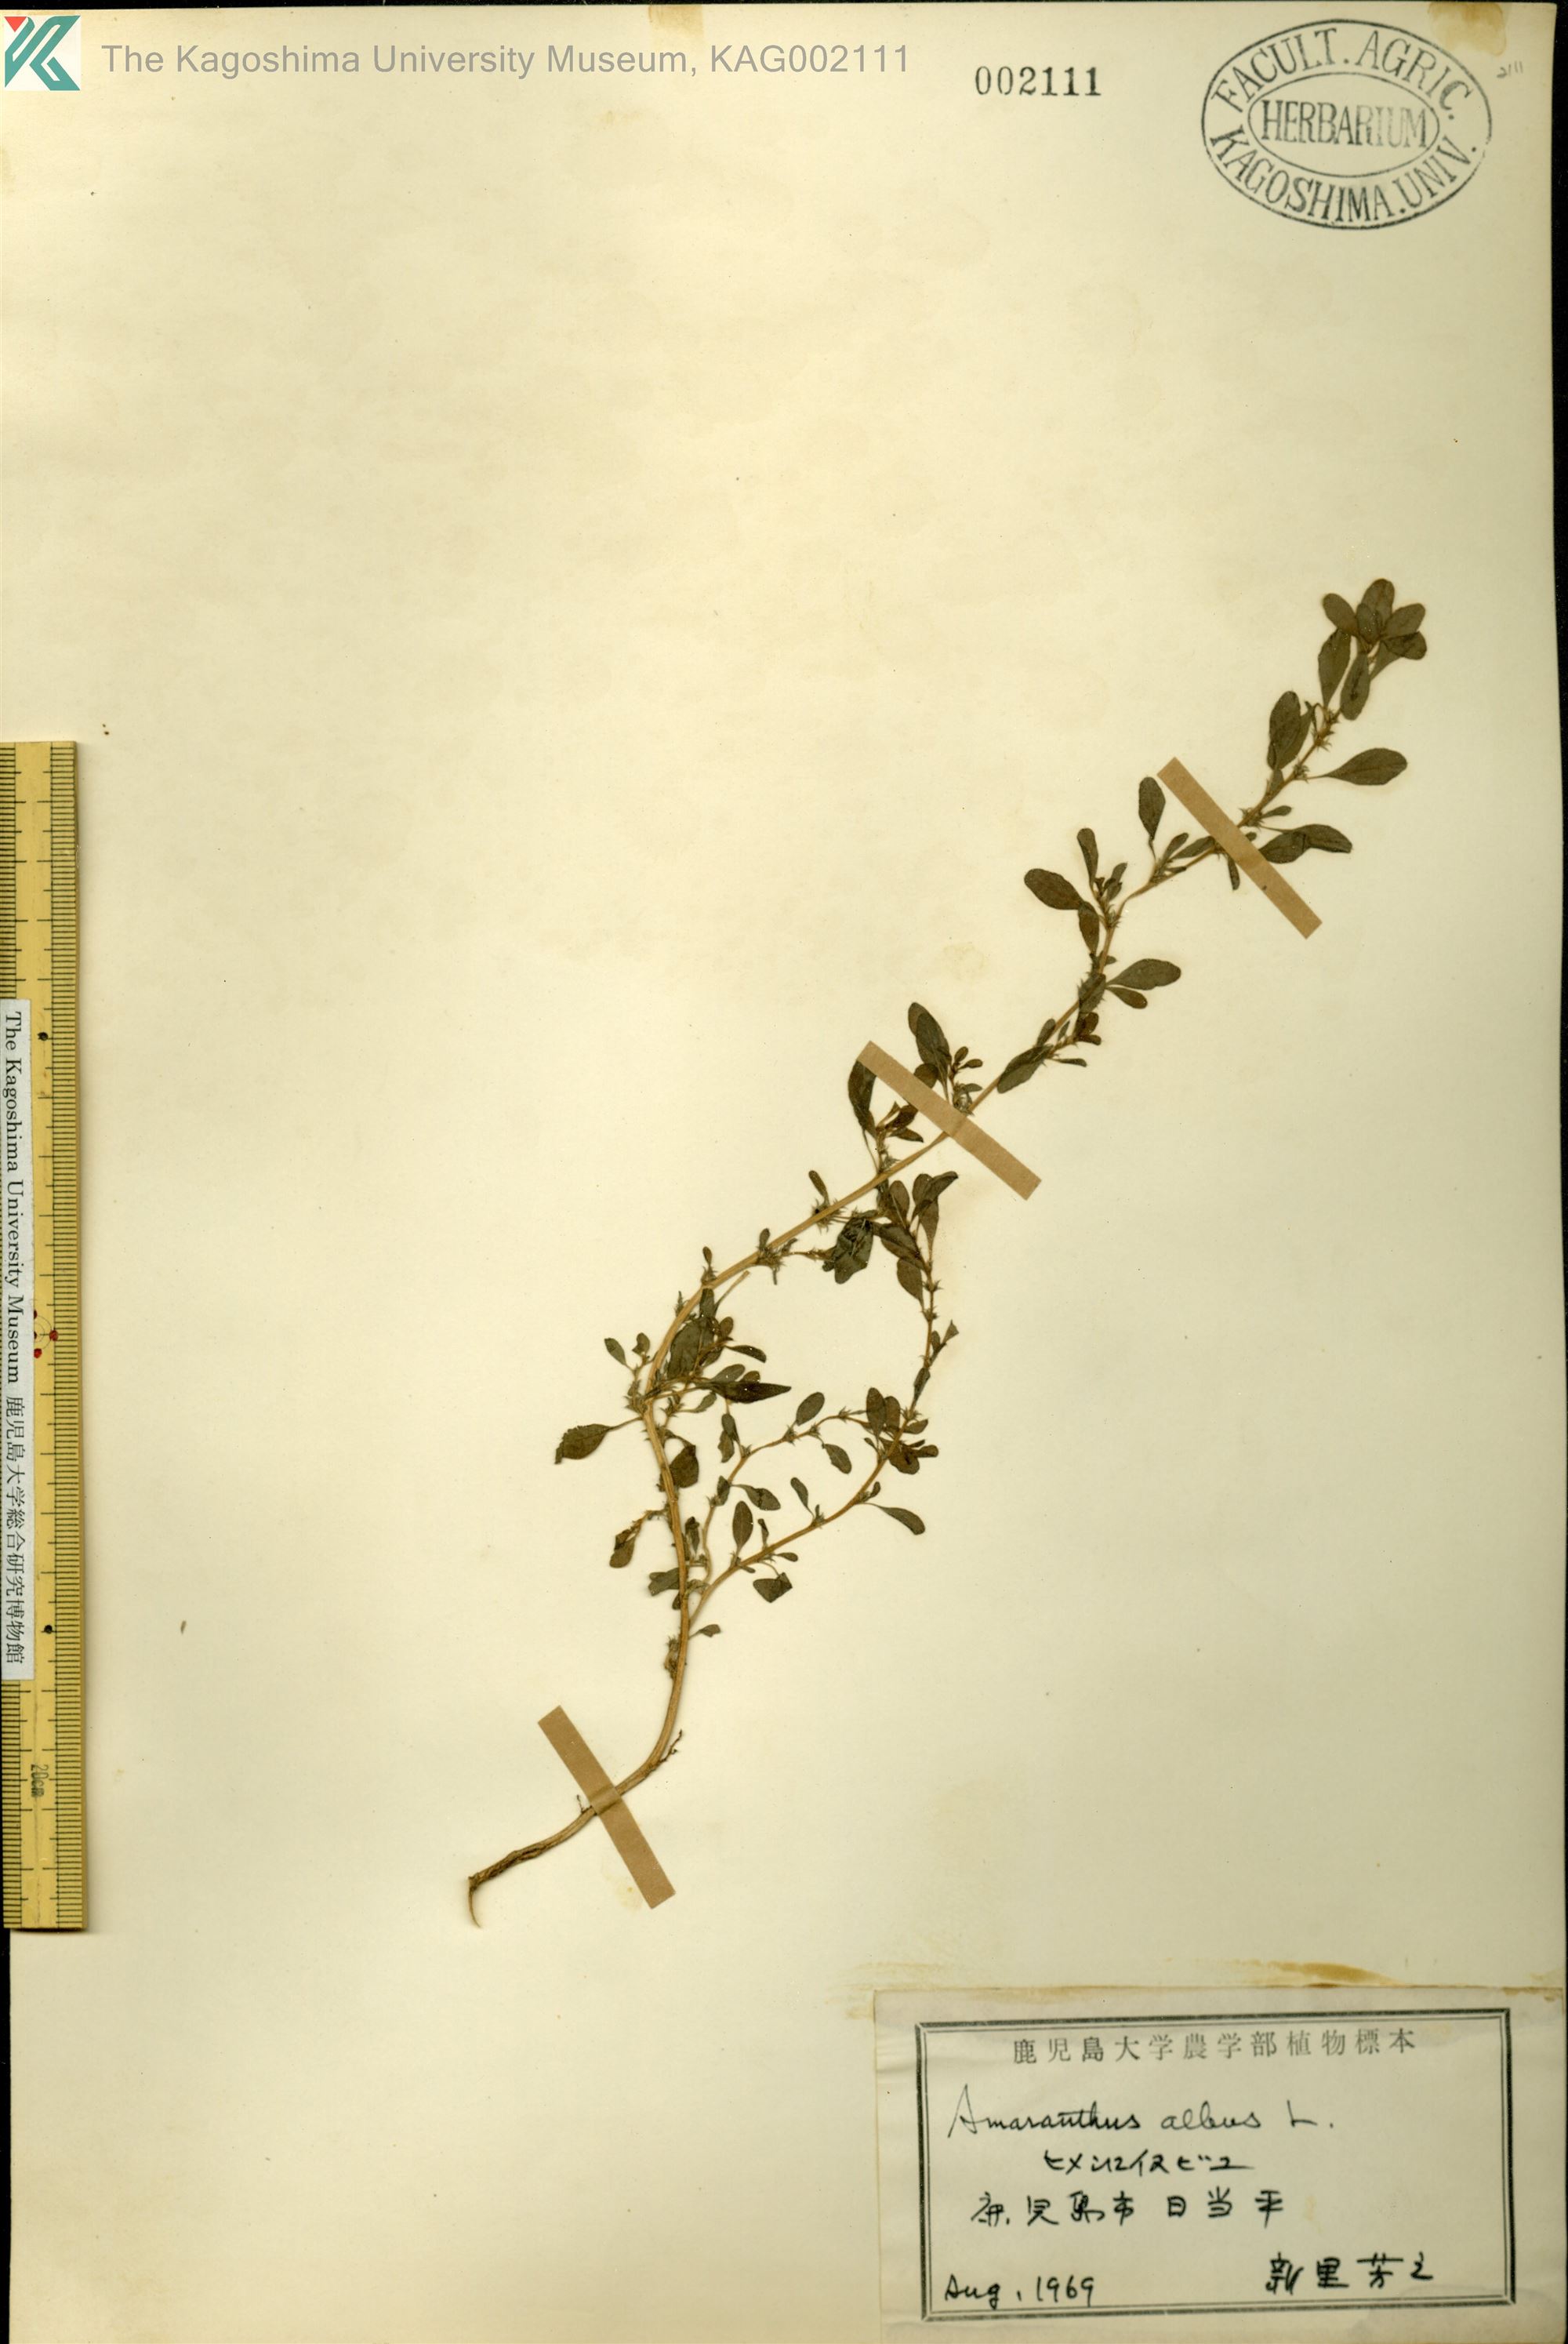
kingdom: Plantae
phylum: Tracheophyta
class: Magnoliopsida
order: Caryophyllales
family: Amaranthaceae
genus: Amaranthus
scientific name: Amaranthus albus
